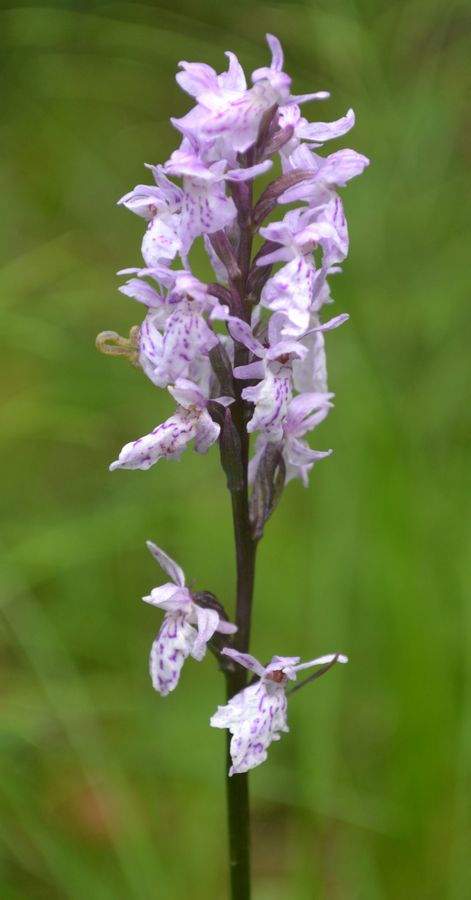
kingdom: Plantae
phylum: Tracheophyta
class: Liliopsida
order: Asparagales
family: Orchidaceae
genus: Dactylorhiza
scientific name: Dactylorhiza maculata
